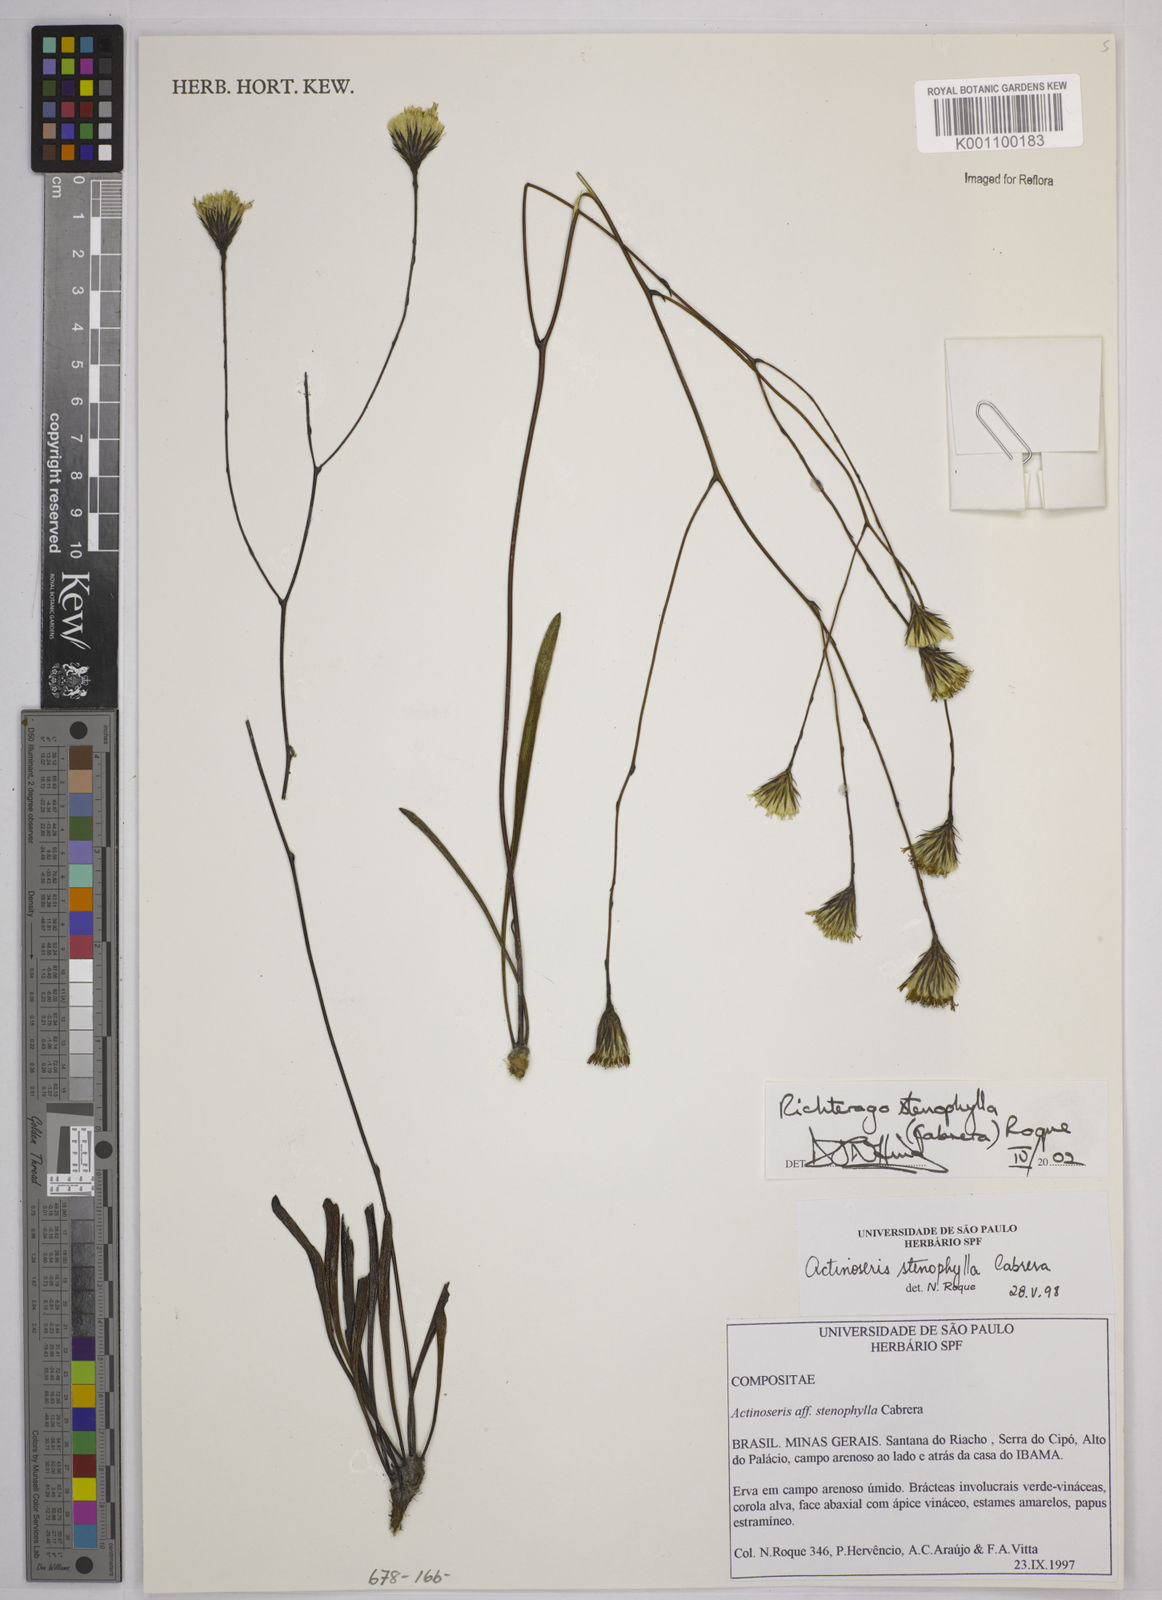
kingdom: Plantae
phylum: Tracheophyta
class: Magnoliopsida
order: Asterales
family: Asteraceae
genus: Richterago
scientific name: Richterago stenophylla
